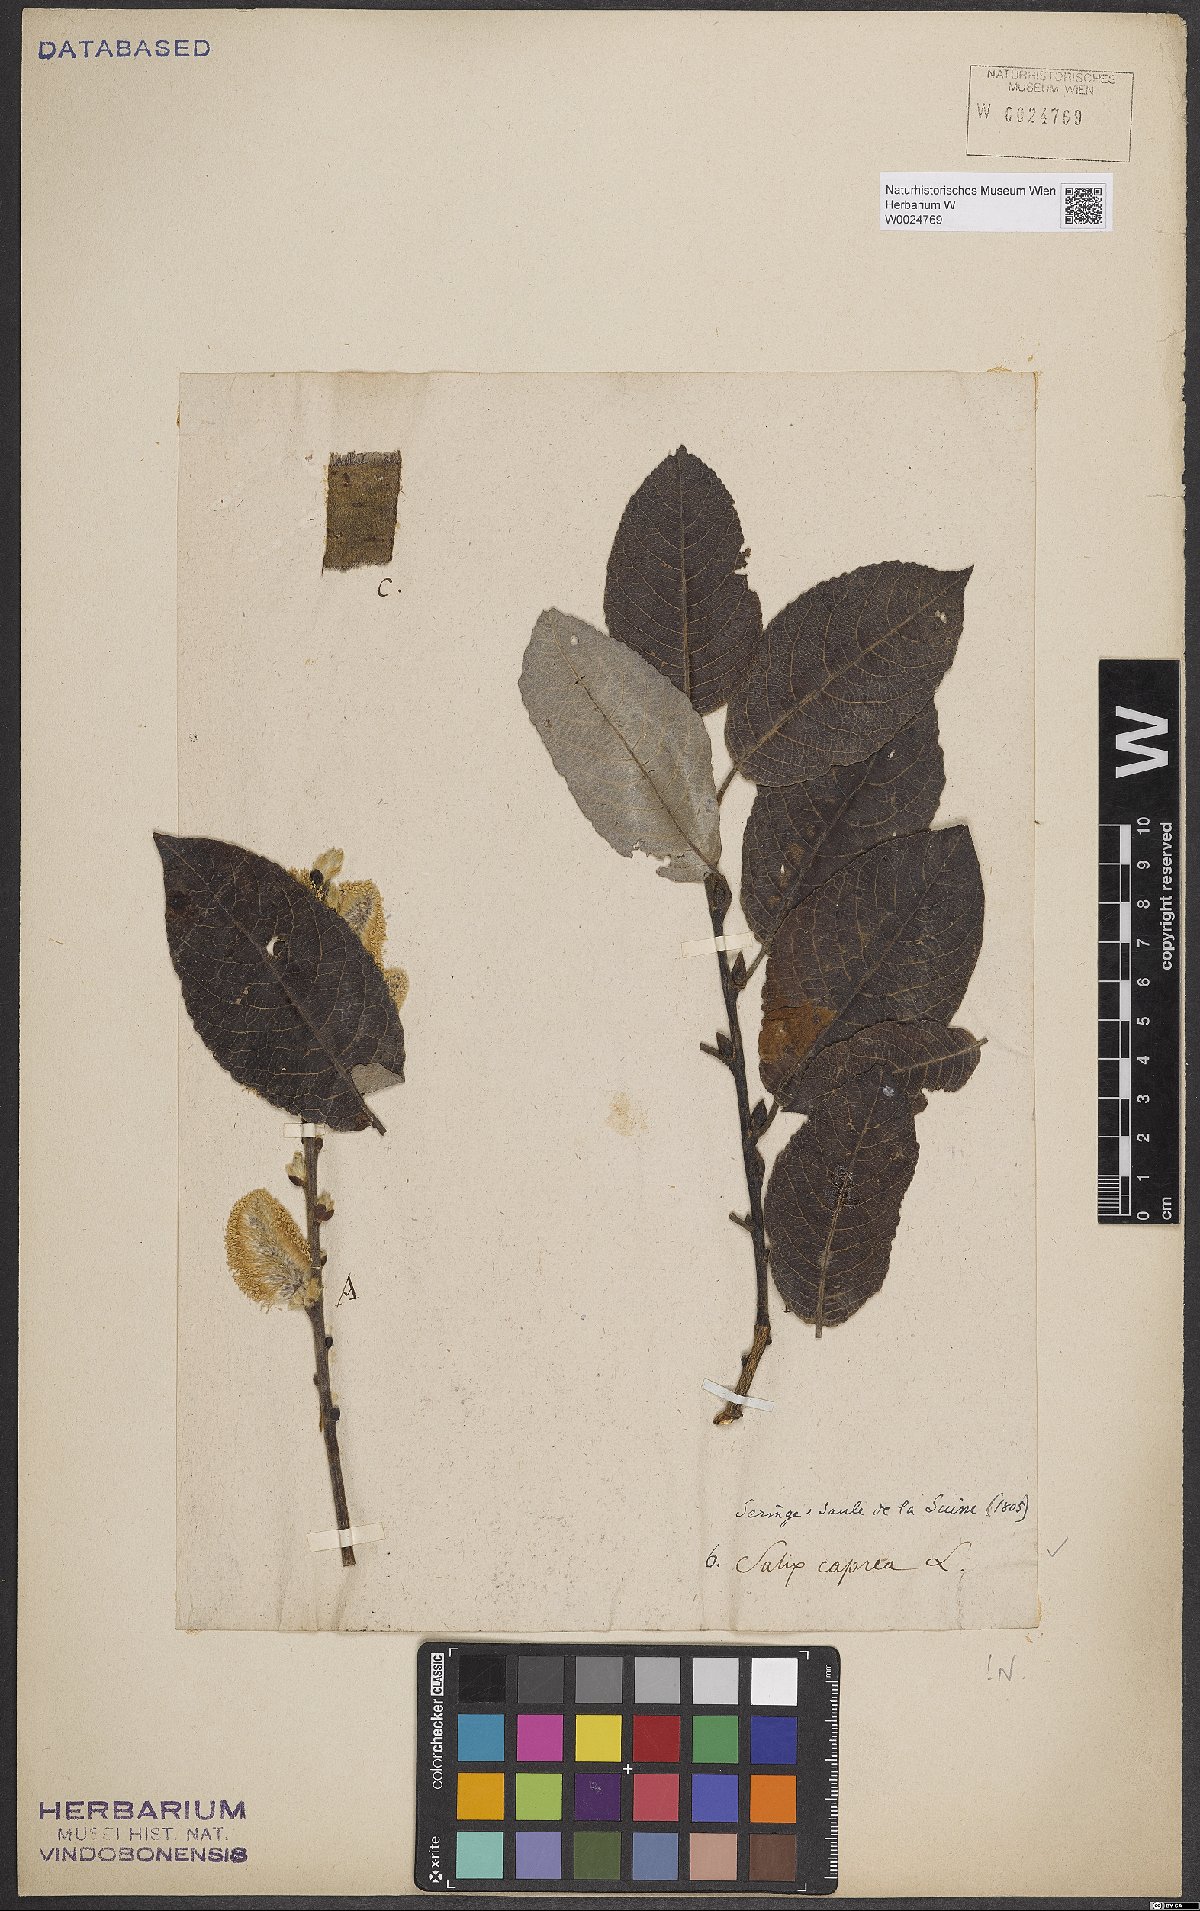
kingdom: Plantae
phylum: Tracheophyta
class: Magnoliopsida
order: Malpighiales
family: Salicaceae
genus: Salix
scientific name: Salix caprea
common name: Goat willow
